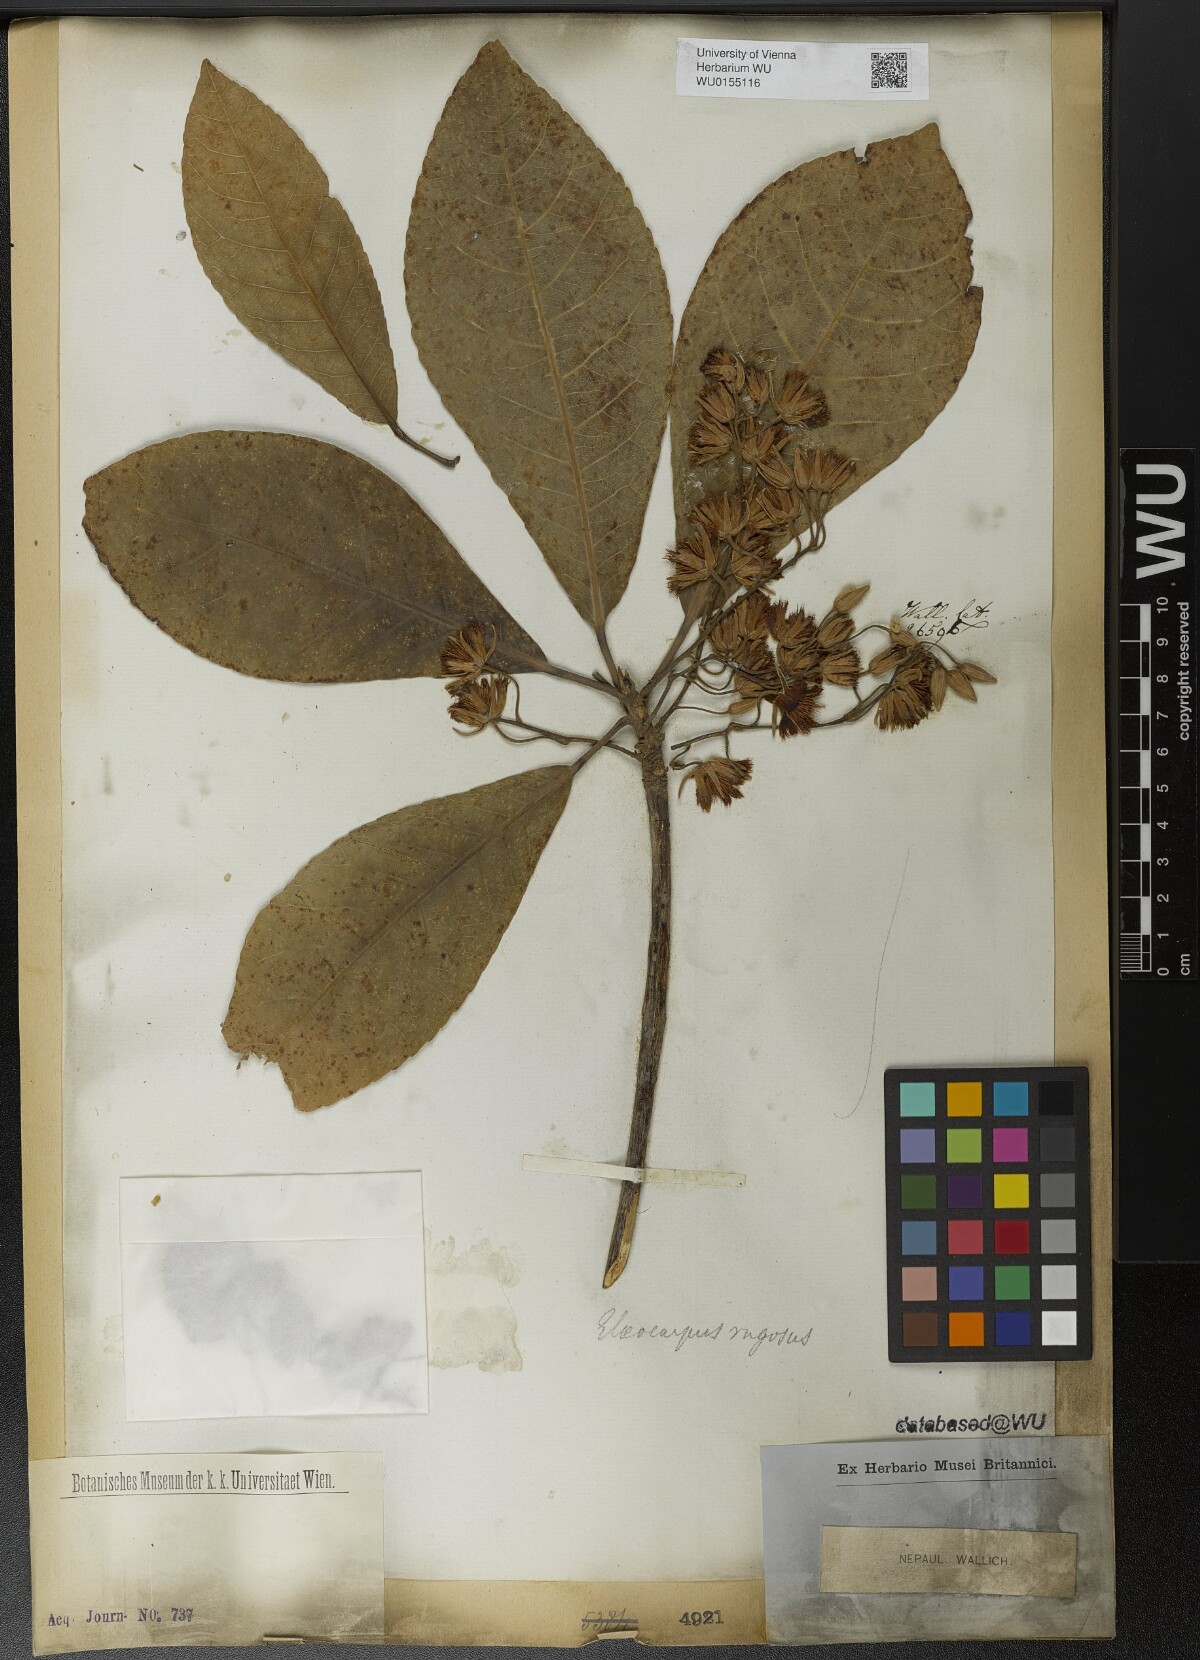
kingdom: Plantae
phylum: Tracheophyta
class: Magnoliopsida
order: Oxalidales
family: Elaeocarpaceae
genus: Elaeocarpus
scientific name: Elaeocarpus rugosus
